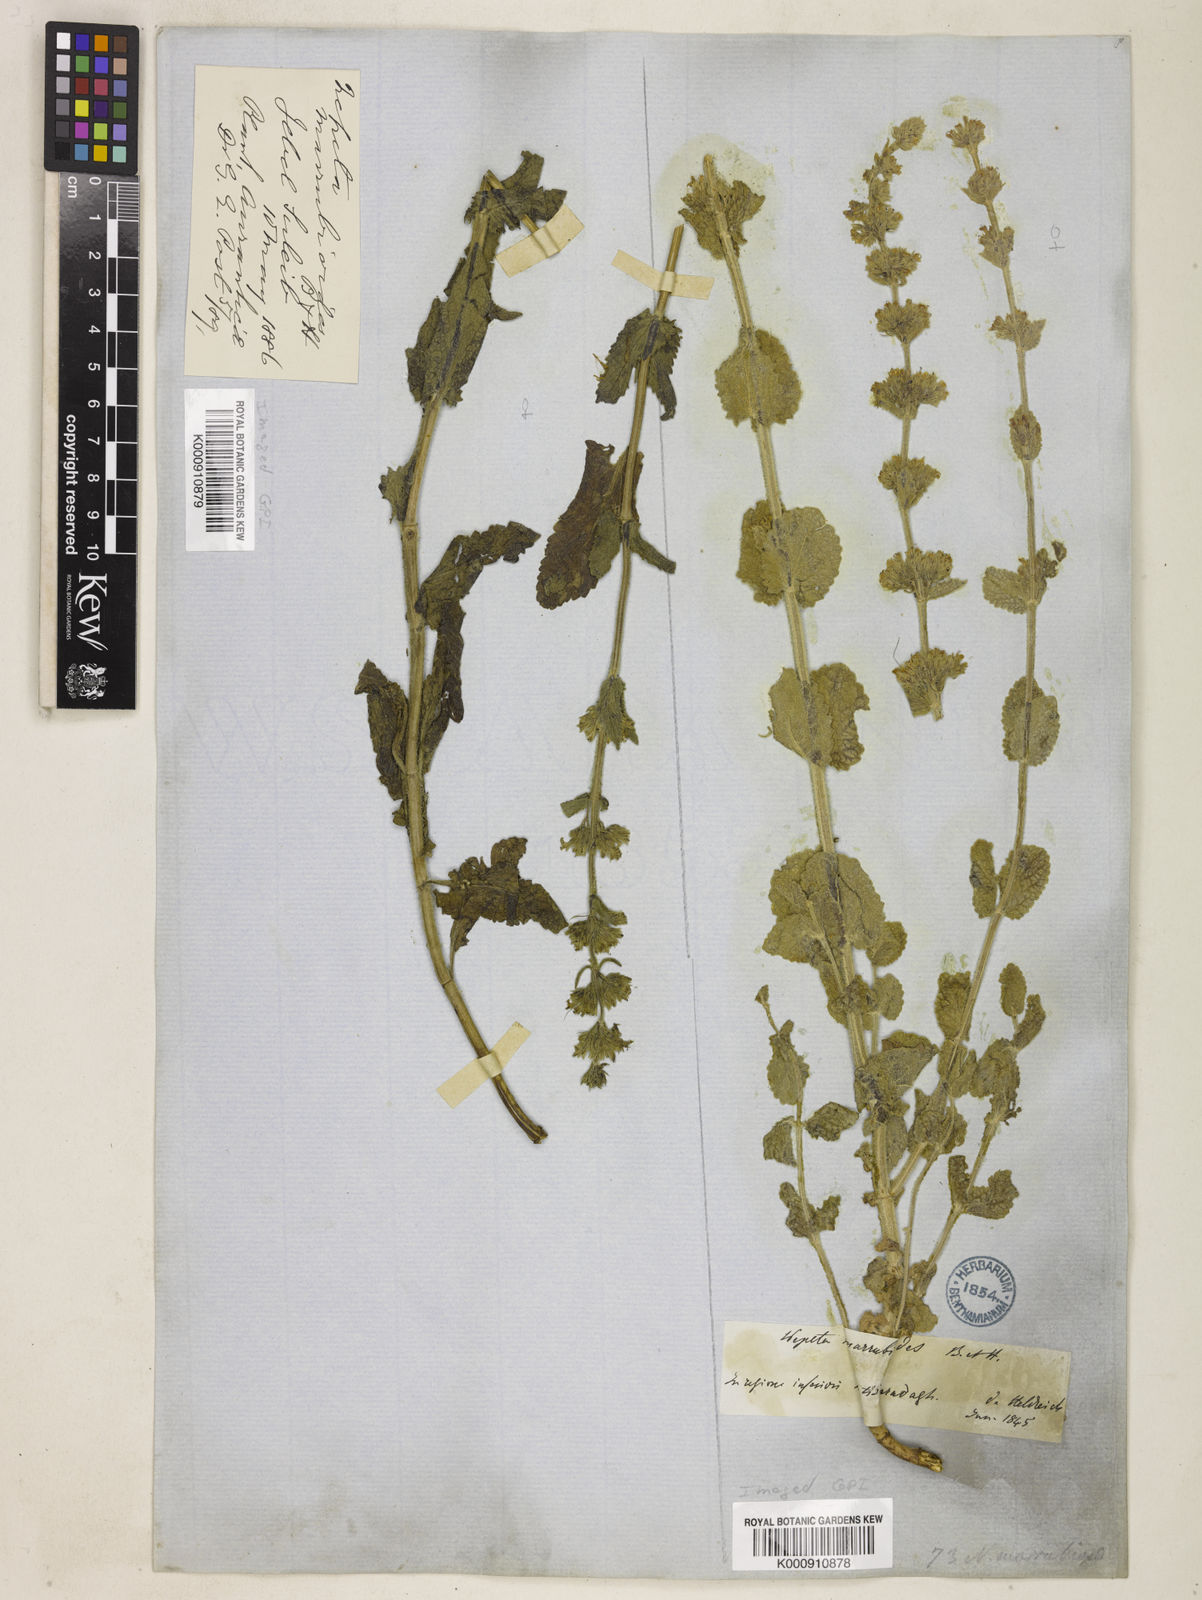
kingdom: Plantae
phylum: Tracheophyta
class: Magnoliopsida
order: Lamiales
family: Lamiaceae
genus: Nepeta
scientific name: Nepeta nuda
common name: Hairless catmint
